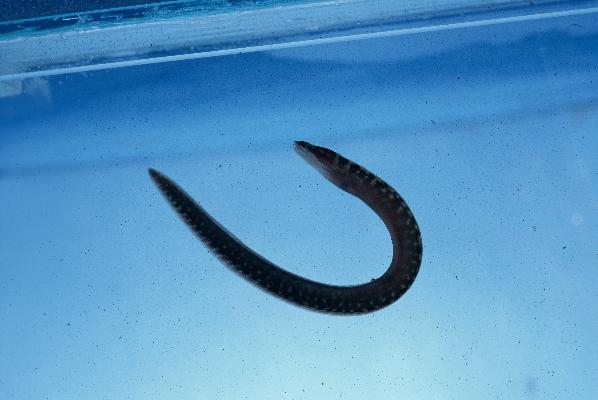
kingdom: Animalia
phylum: Chordata
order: Anguilliformes
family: Muraenidae
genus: Gymnothorax
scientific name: Gymnothorax margaritophorus
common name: Blotch-necked moray
